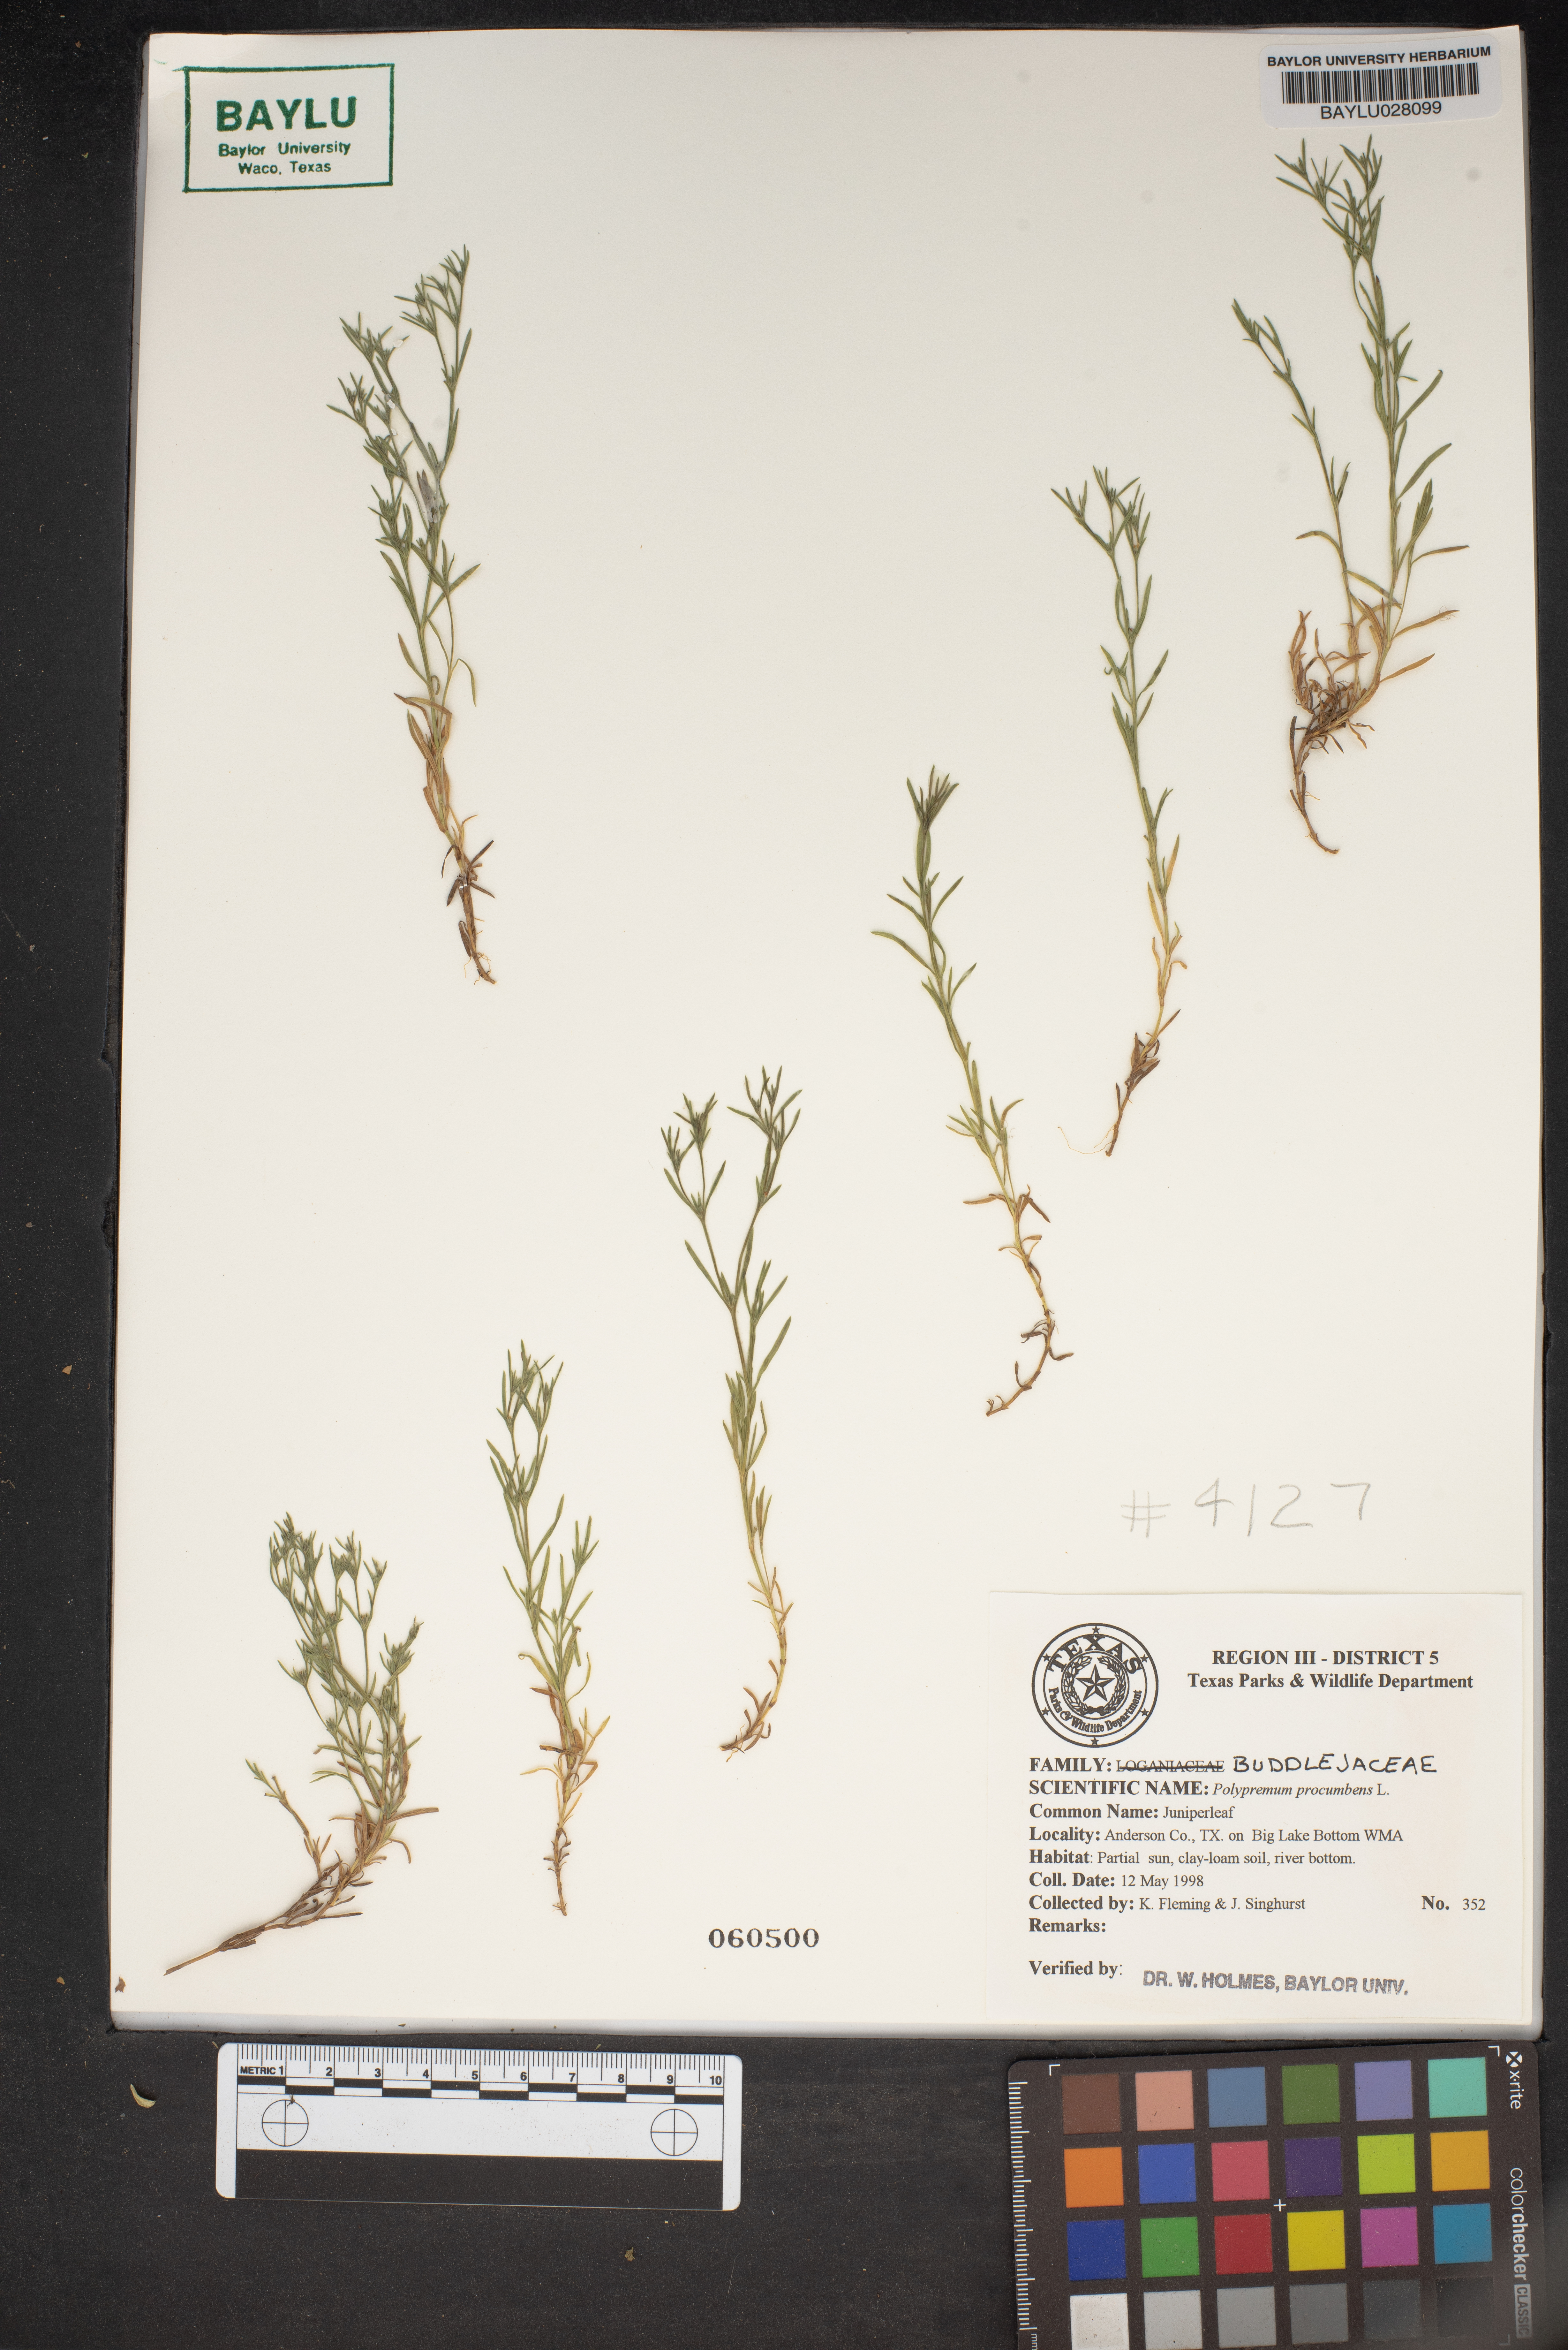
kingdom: Plantae
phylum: Tracheophyta
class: Magnoliopsida
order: Lamiales
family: Tetrachondraceae
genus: Polypremum
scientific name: Polypremum procumbens
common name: Juniper-leaf
